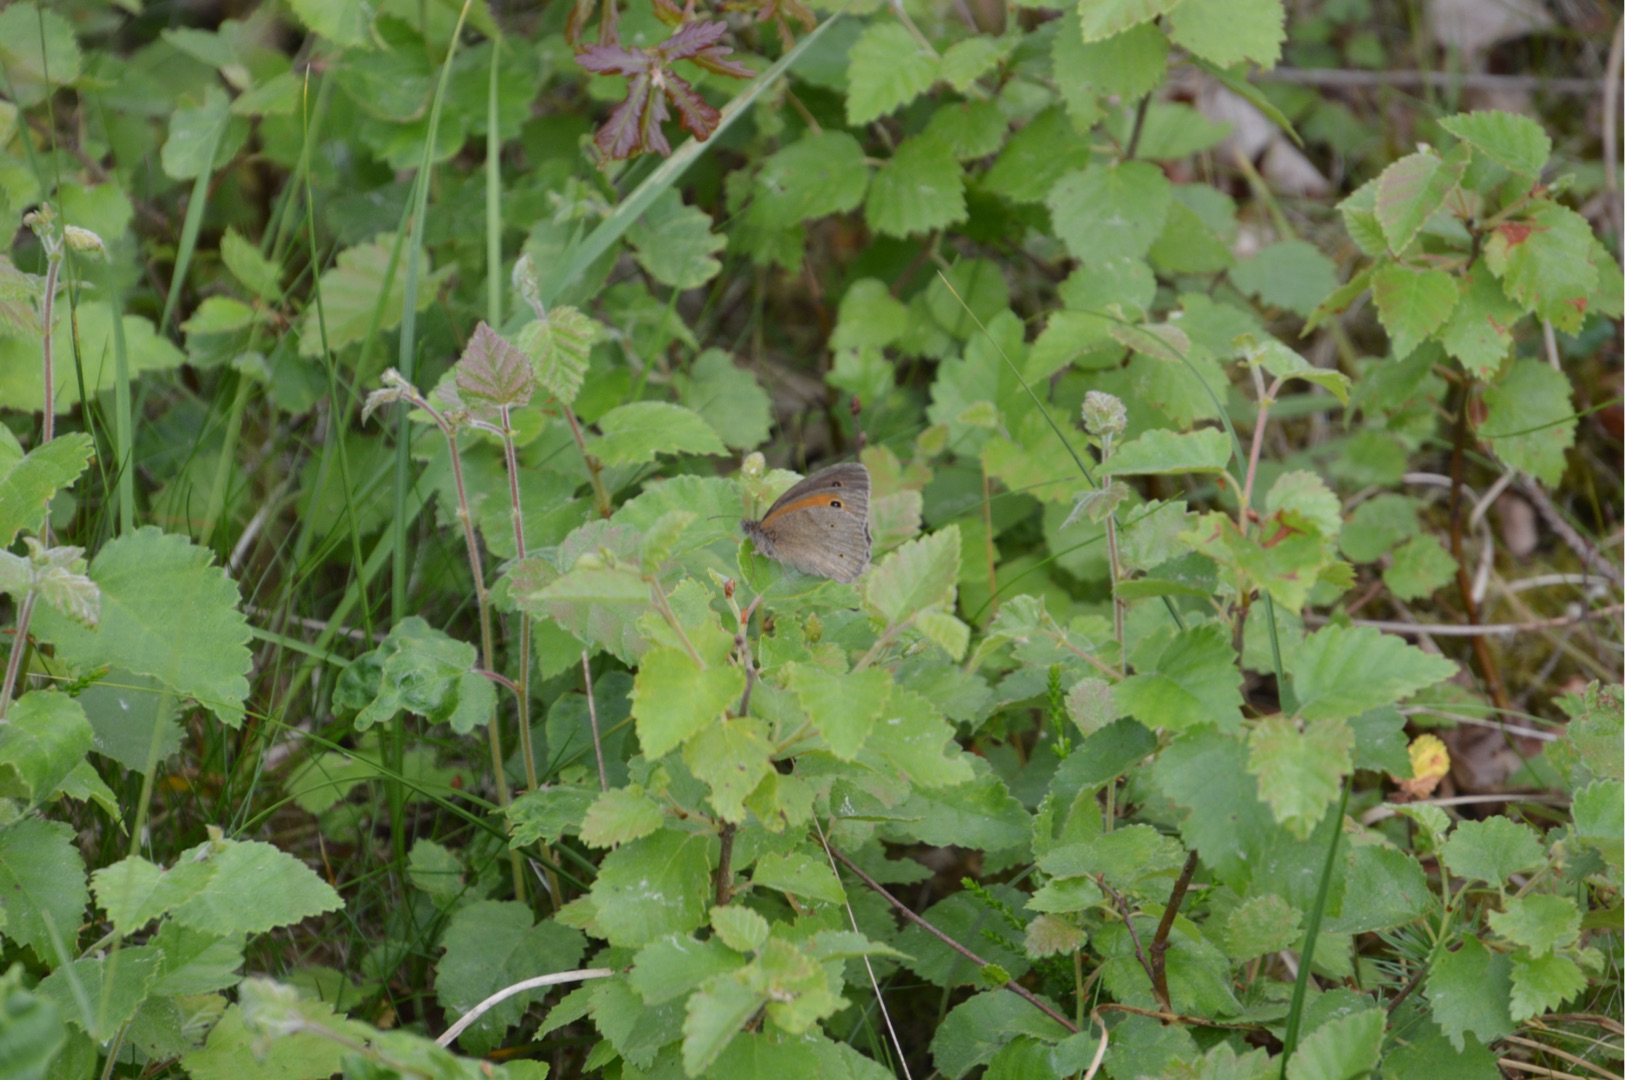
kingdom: Animalia
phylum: Arthropoda
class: Insecta
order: Lepidoptera
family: Nymphalidae
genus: Maniola
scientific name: Maniola jurtina
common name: Græsrandøje
